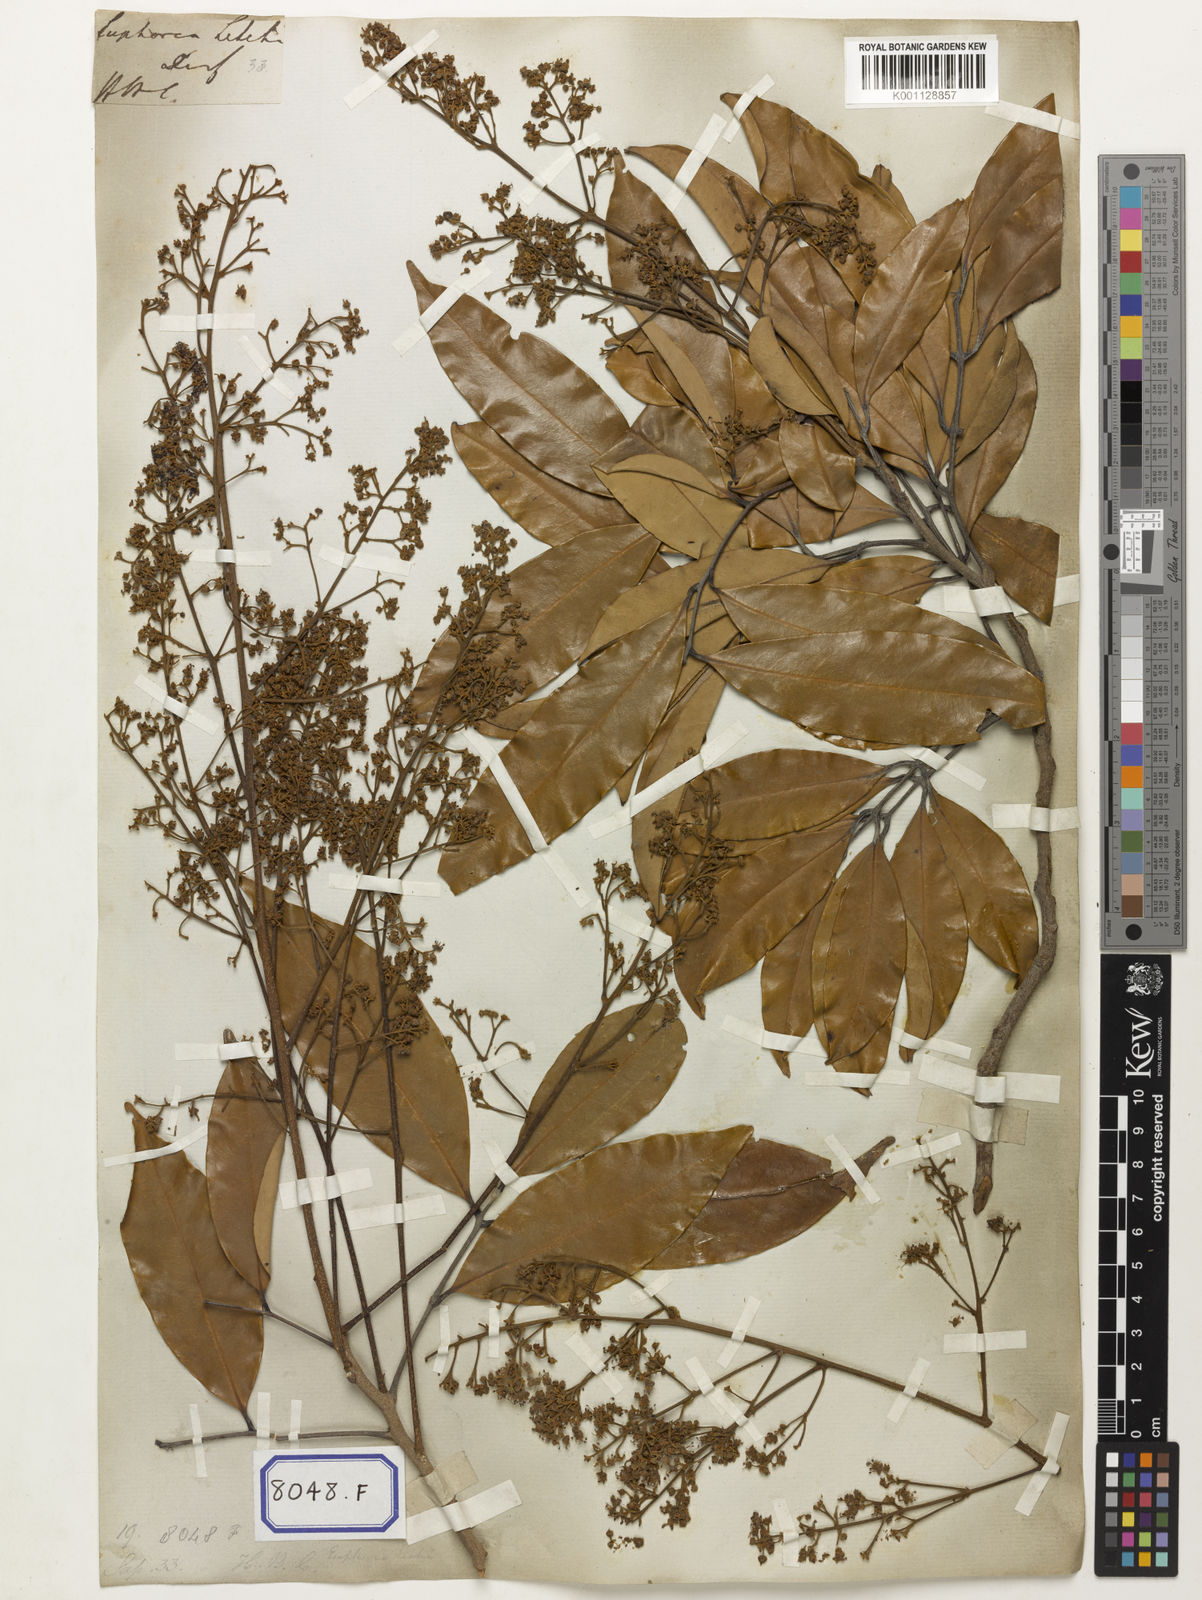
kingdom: Animalia
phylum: Arthropoda
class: Insecta
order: Coleoptera
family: Scarabaeidae
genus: Euphoria
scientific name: Euphoria
